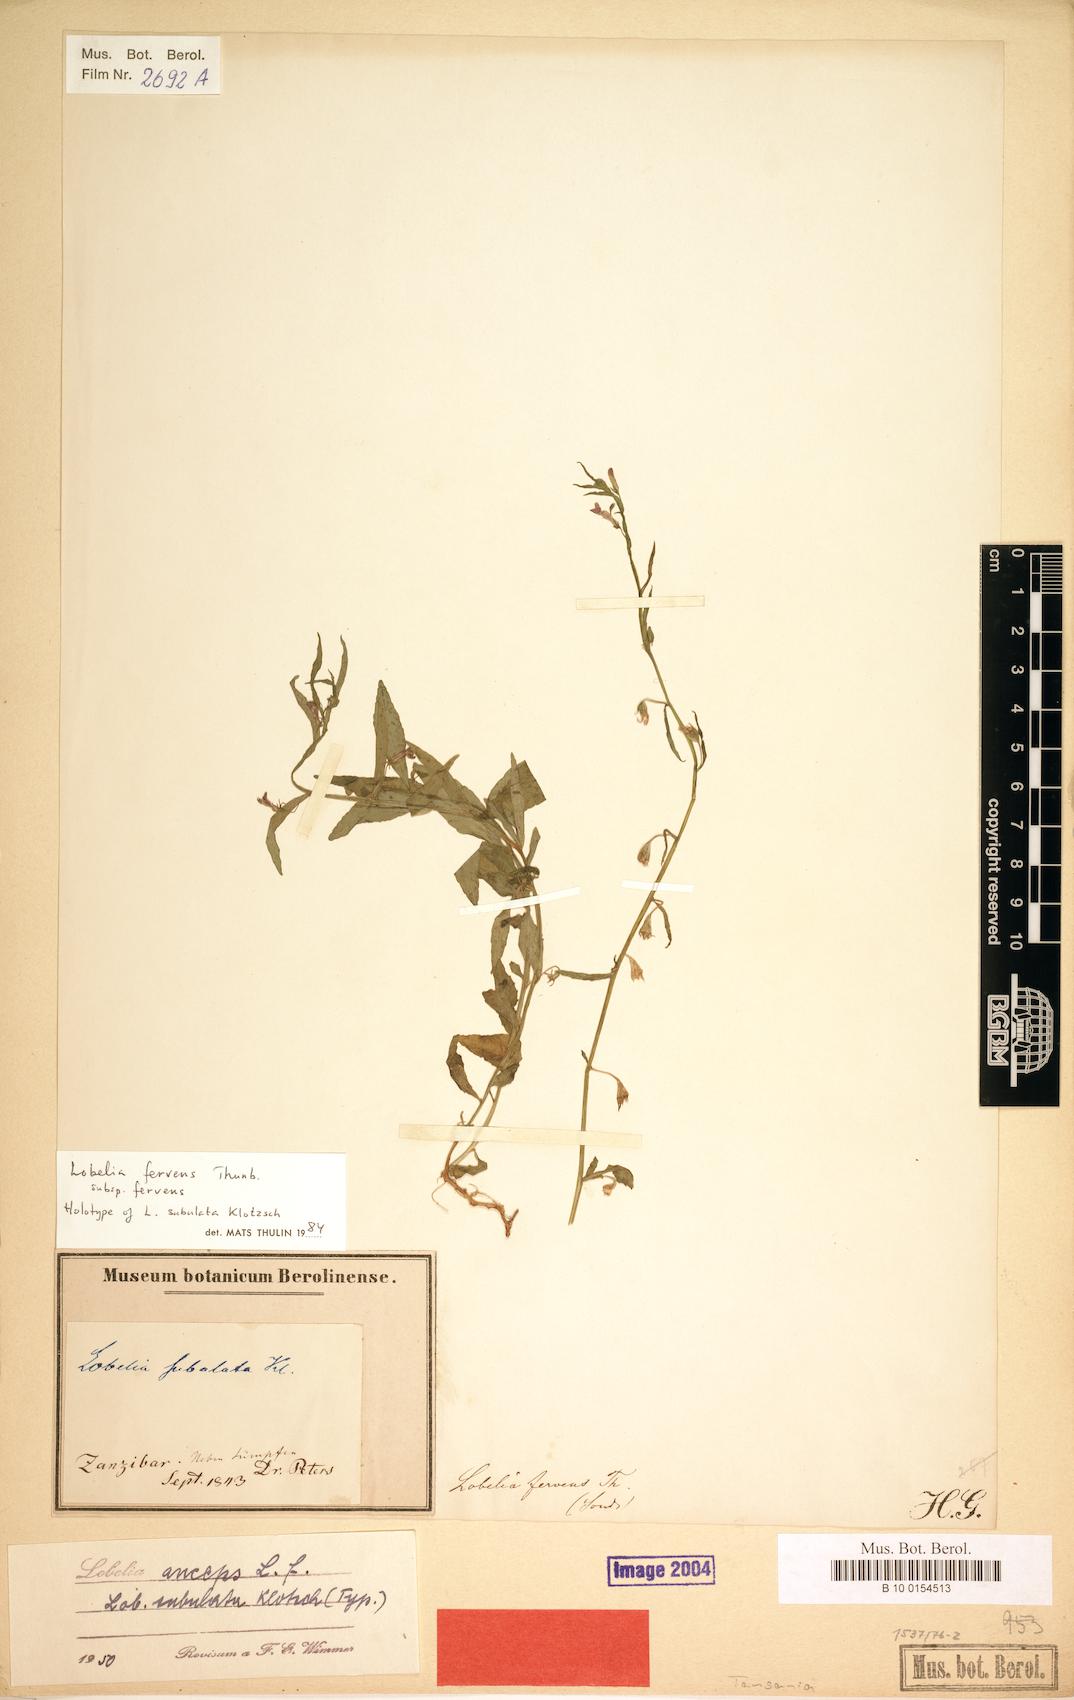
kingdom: Plantae
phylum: Tracheophyta
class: Magnoliopsida
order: Asterales
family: Campanulaceae
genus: Lobelia
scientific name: Lobelia fervens
